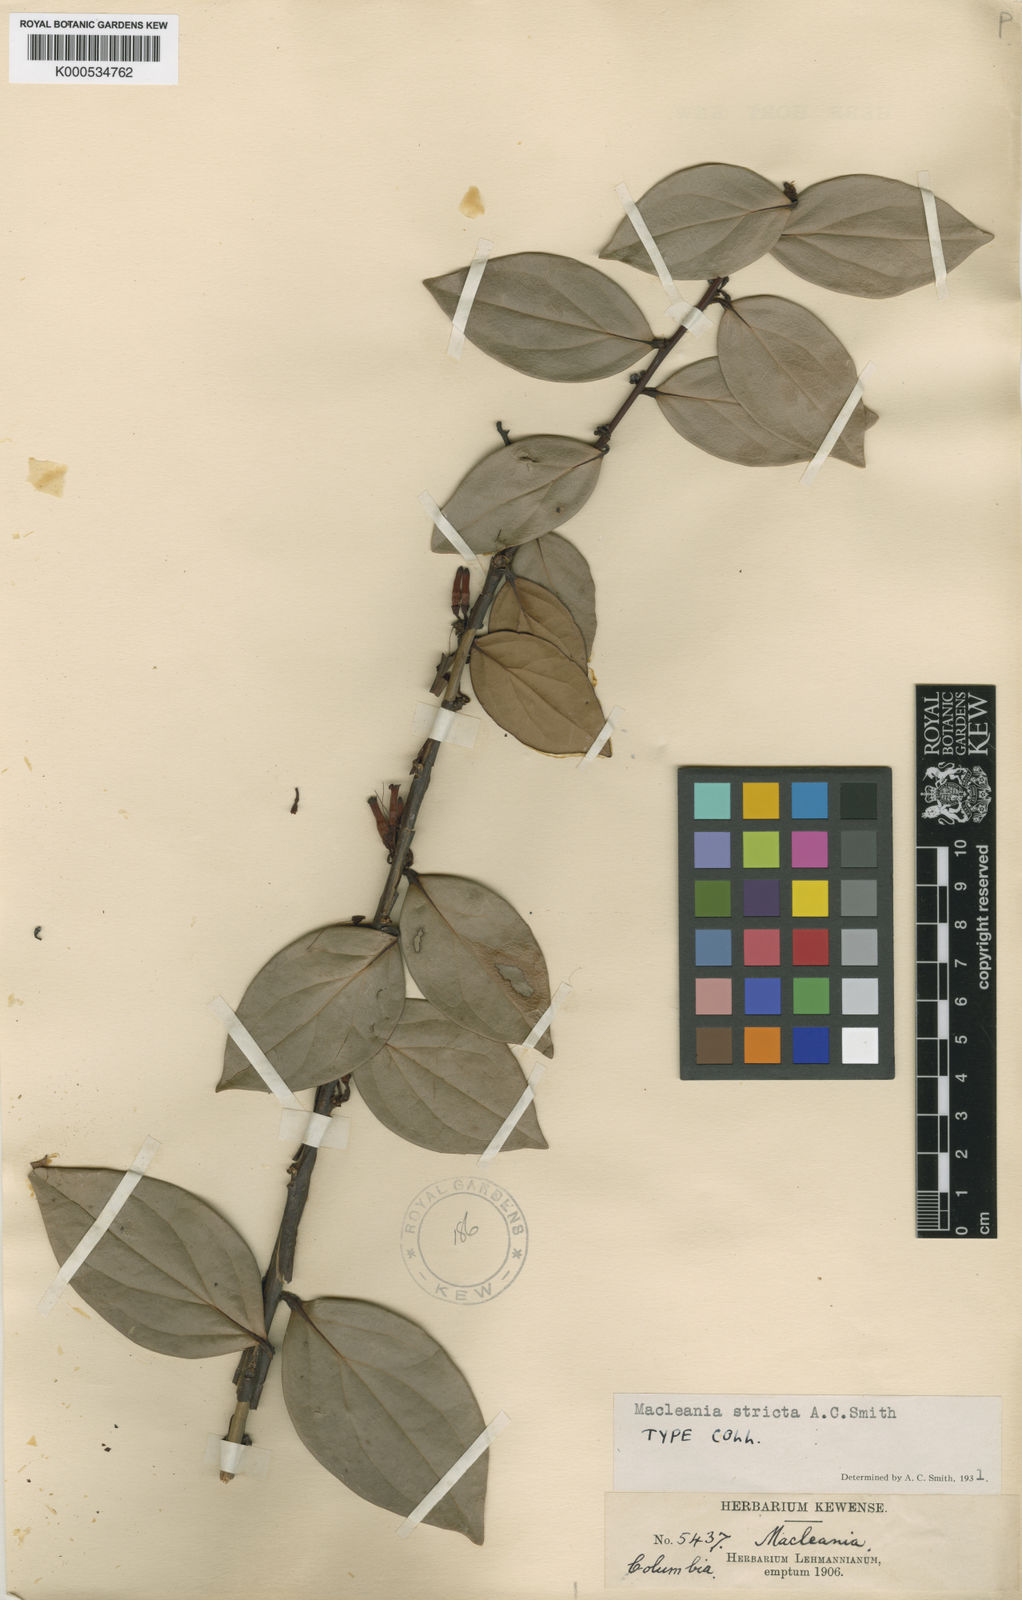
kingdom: Plantae
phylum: Tracheophyta
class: Magnoliopsida
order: Ericales
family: Ericaceae
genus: Macleania
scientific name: Macleania stricta
